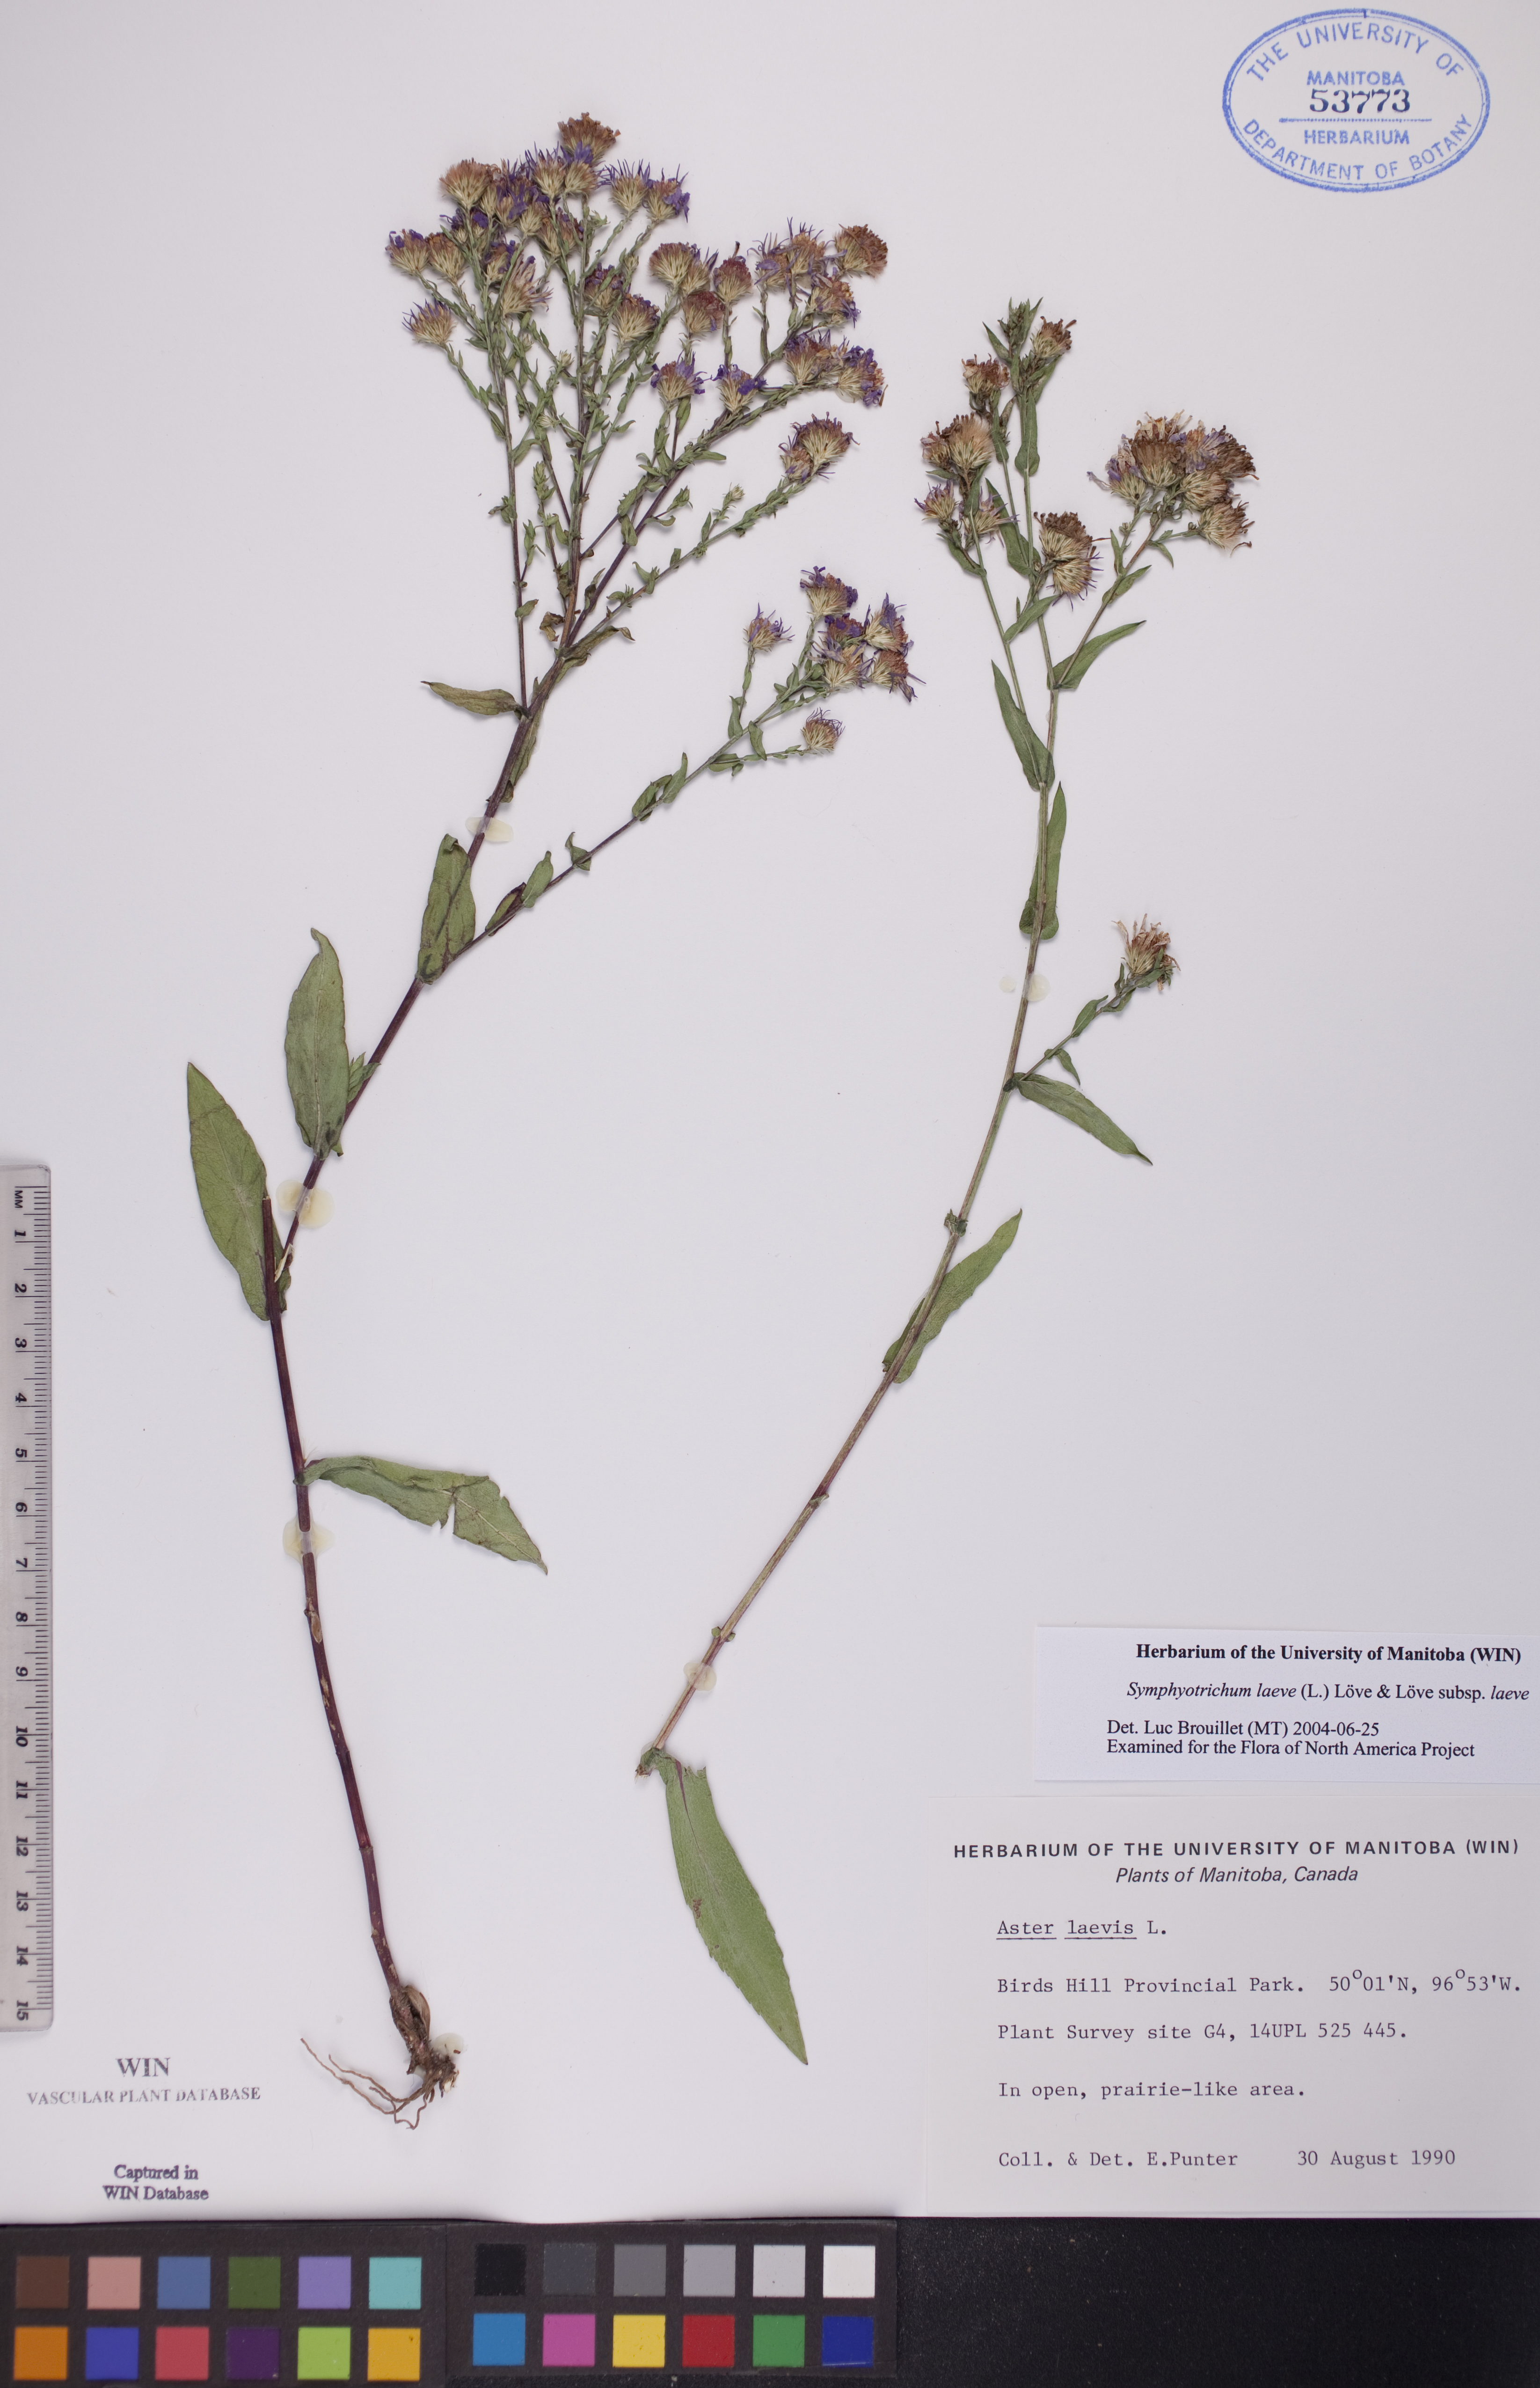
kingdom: Plantae
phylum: Tracheophyta
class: Magnoliopsida
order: Asterales
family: Asteraceae
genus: Symphyotrichum
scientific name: Symphyotrichum laeve
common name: Glaucous aster
